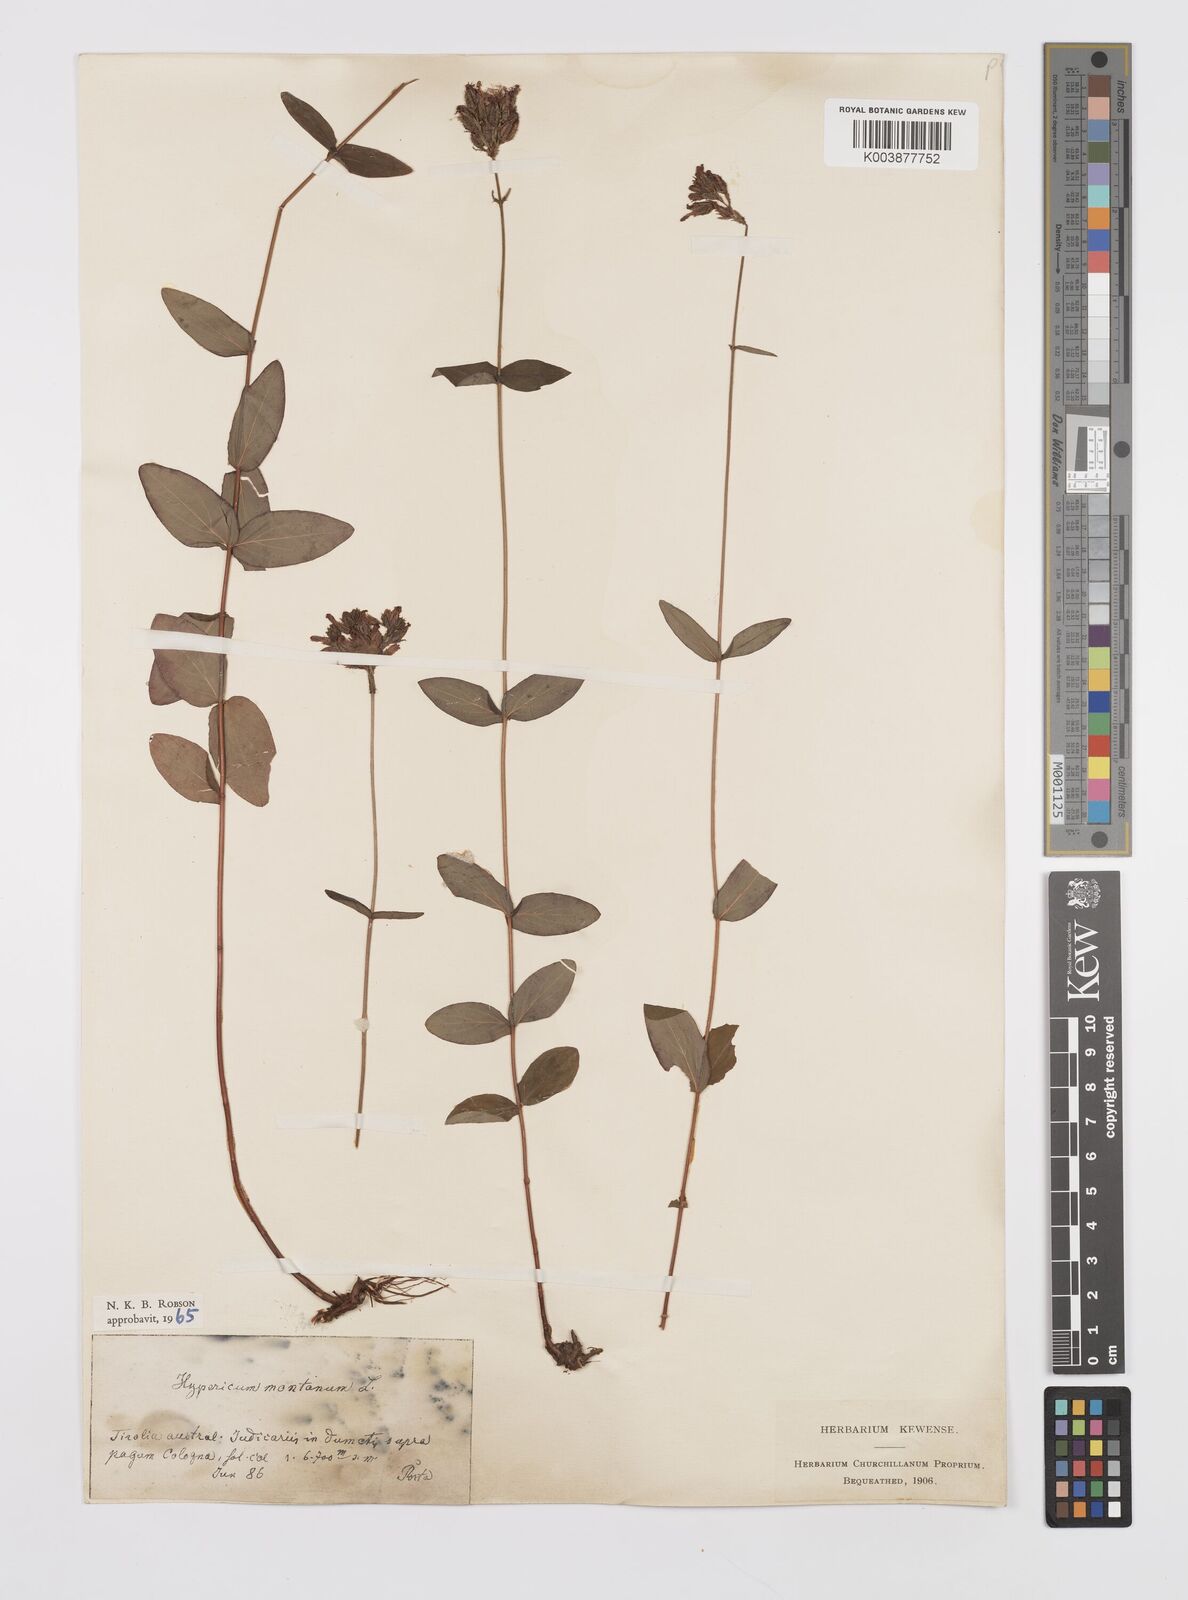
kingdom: Plantae
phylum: Tracheophyta
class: Magnoliopsida
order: Malpighiales
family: Hypericaceae
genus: Hypericum
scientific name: Hypericum montanum
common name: Pale st. john's-wort
